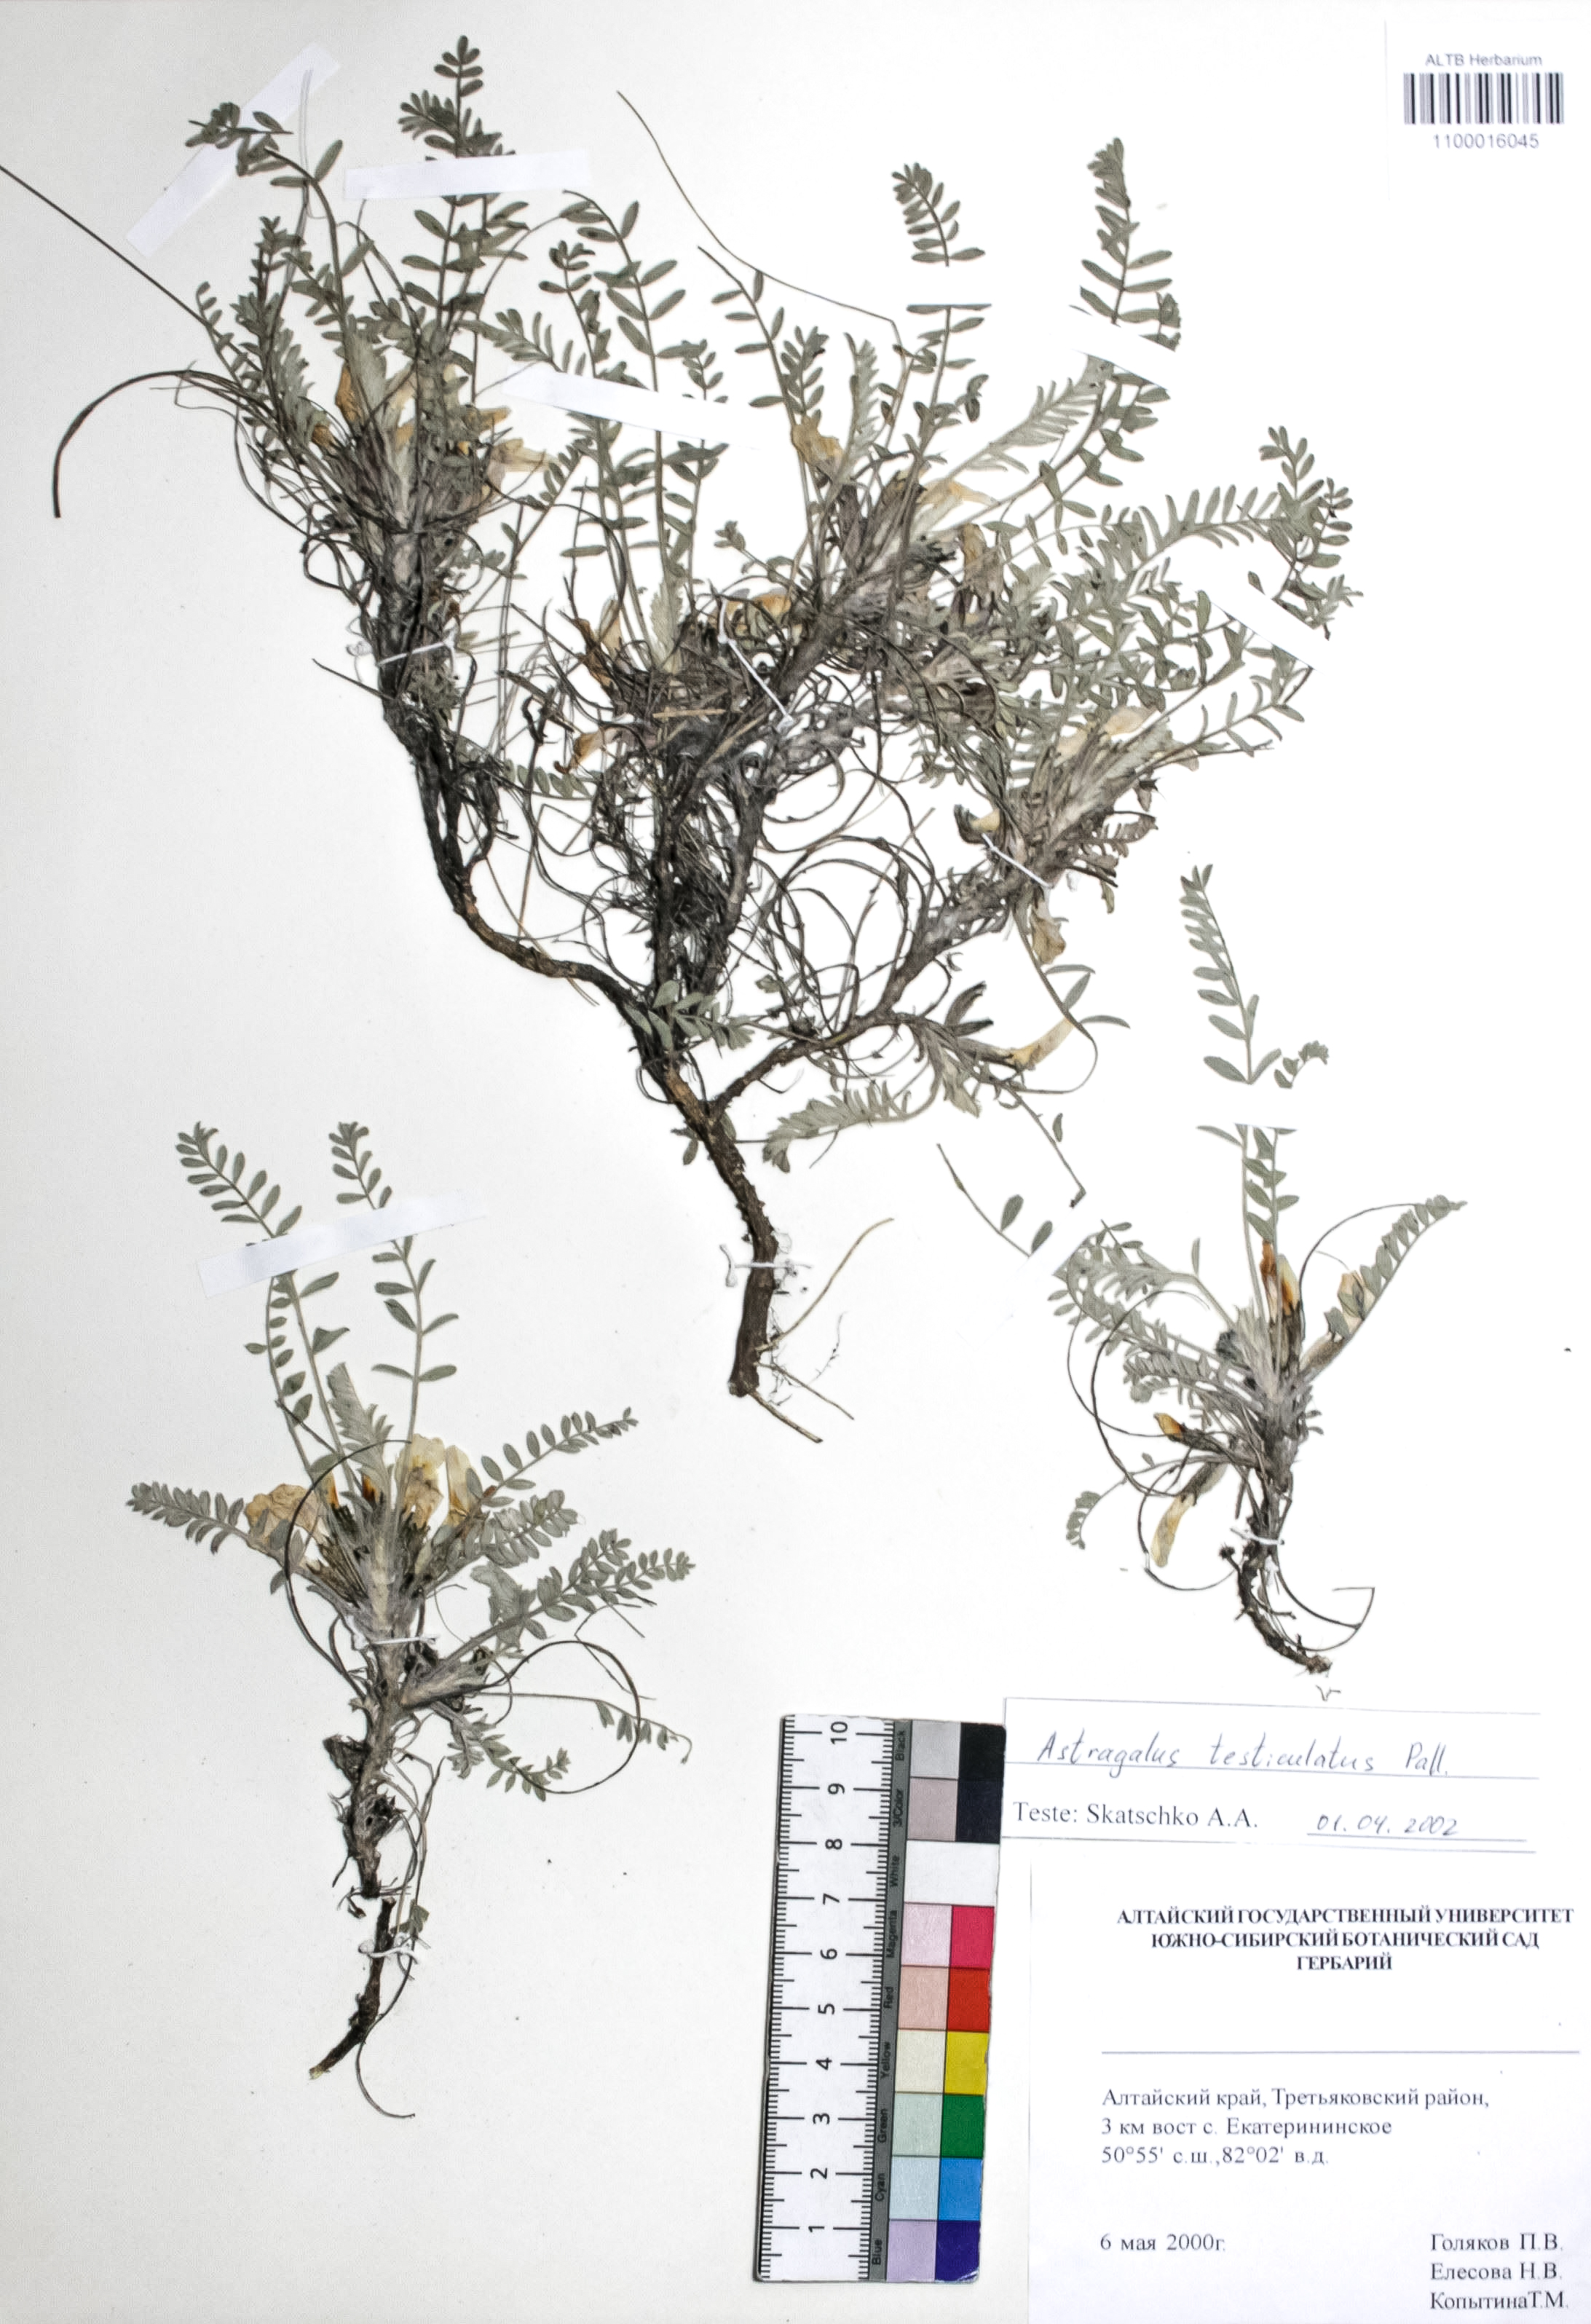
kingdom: Plantae
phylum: Tracheophyta
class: Magnoliopsida
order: Fabales
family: Fabaceae
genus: Astragalus
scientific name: Astragalus testiculatus
